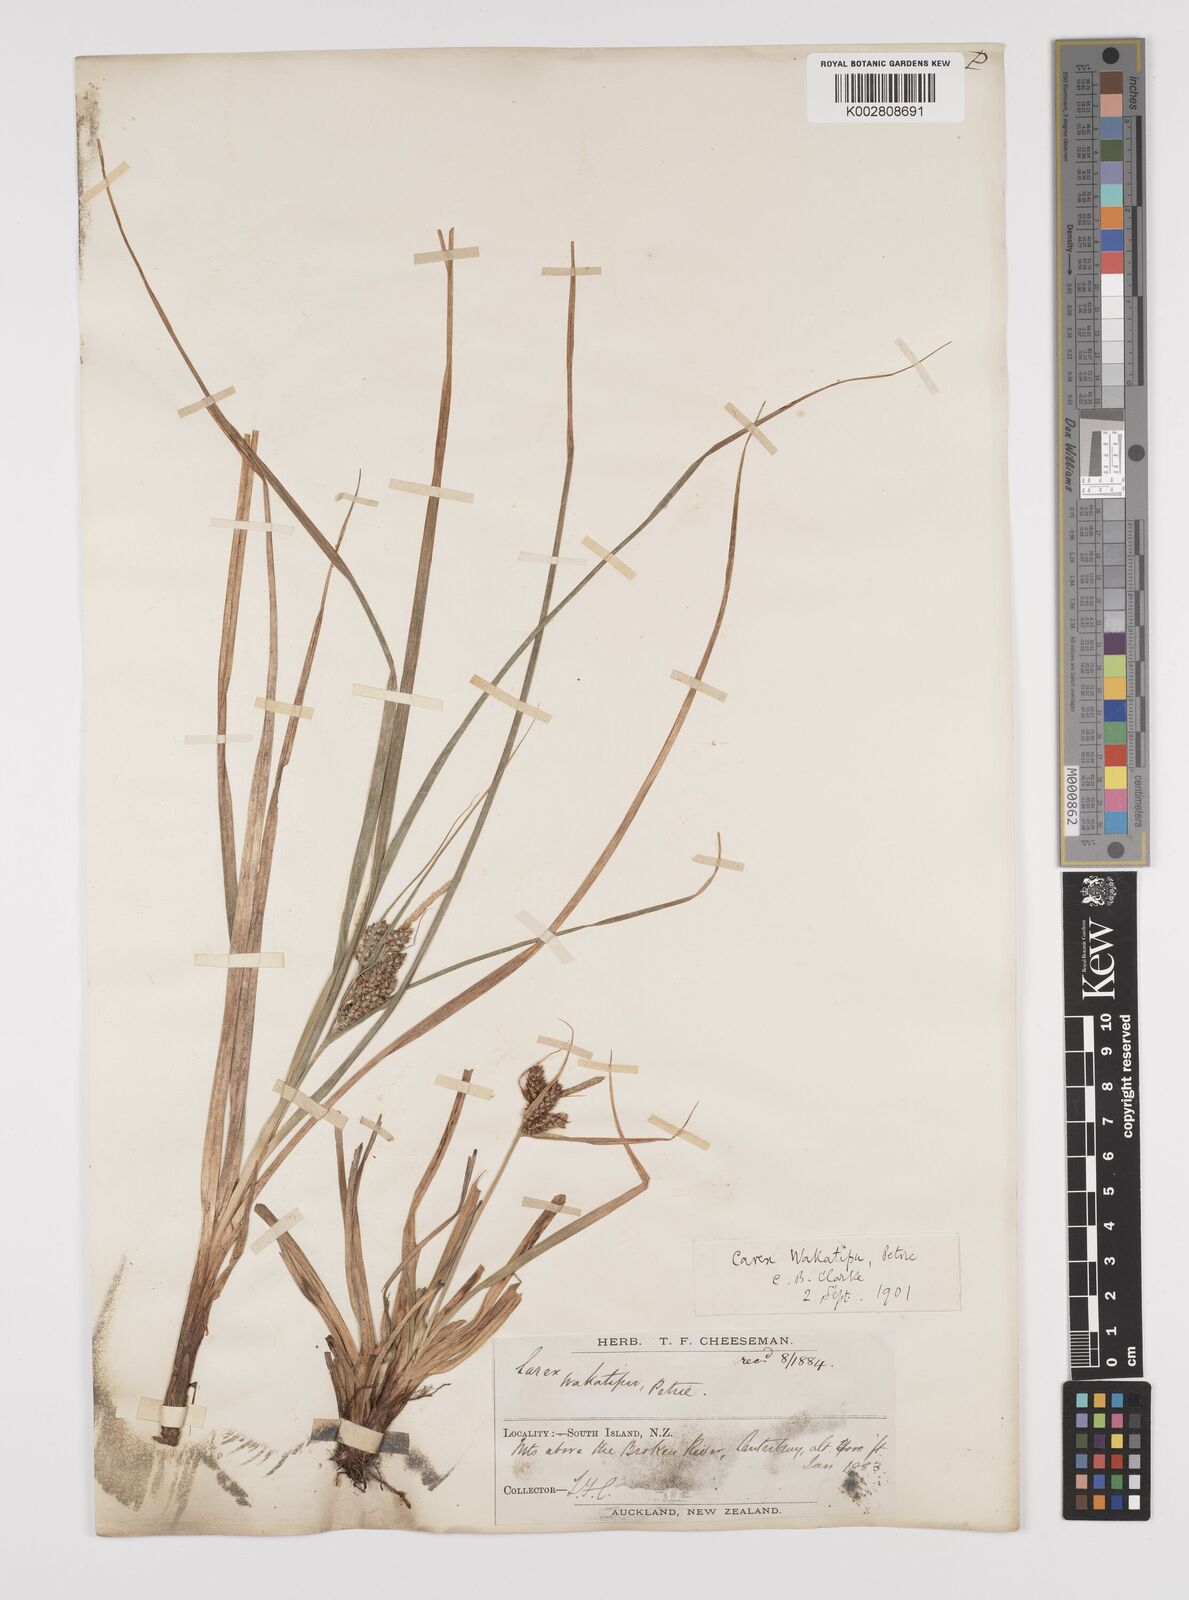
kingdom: Plantae
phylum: Tracheophyta
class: Liliopsida
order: Poales
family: Cyperaceae
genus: Carex
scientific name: Carex wakatipu
